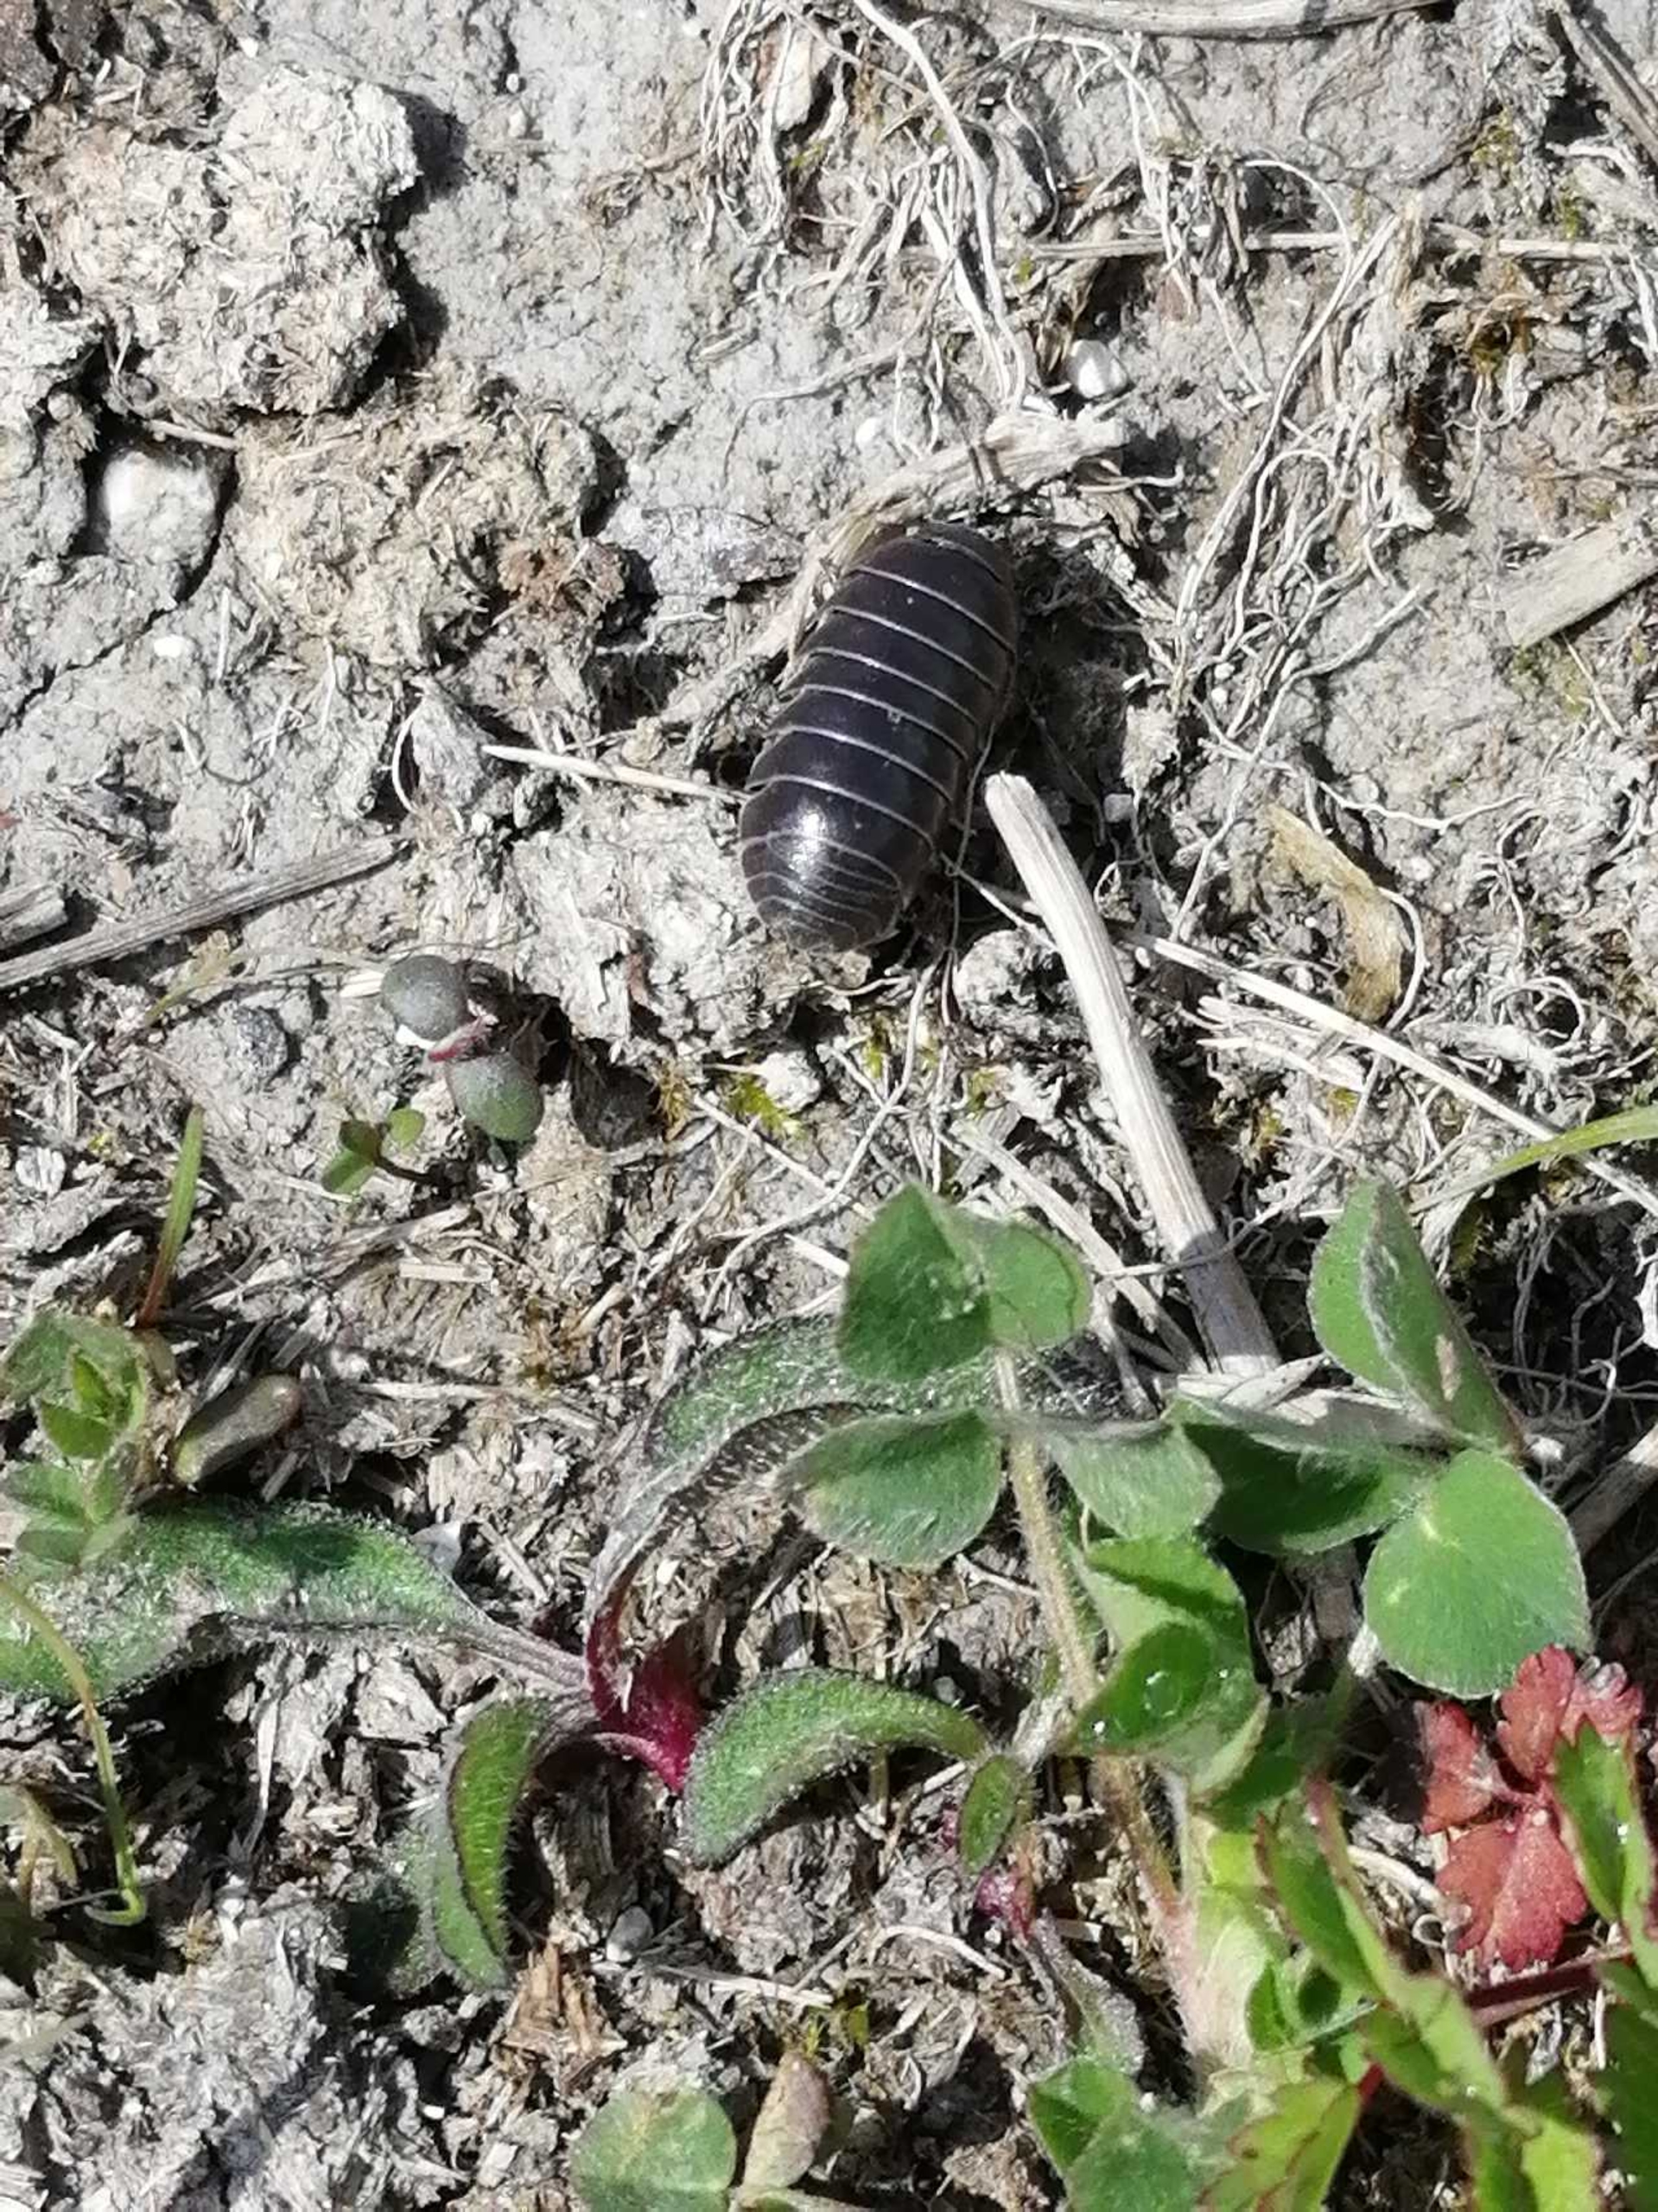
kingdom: Animalia
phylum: Arthropoda
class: Malacostraca
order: Isopoda
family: Armadillidiidae
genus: Armadillidium
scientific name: Armadillidium vulgare
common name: Almindelig kuglebænkebider
